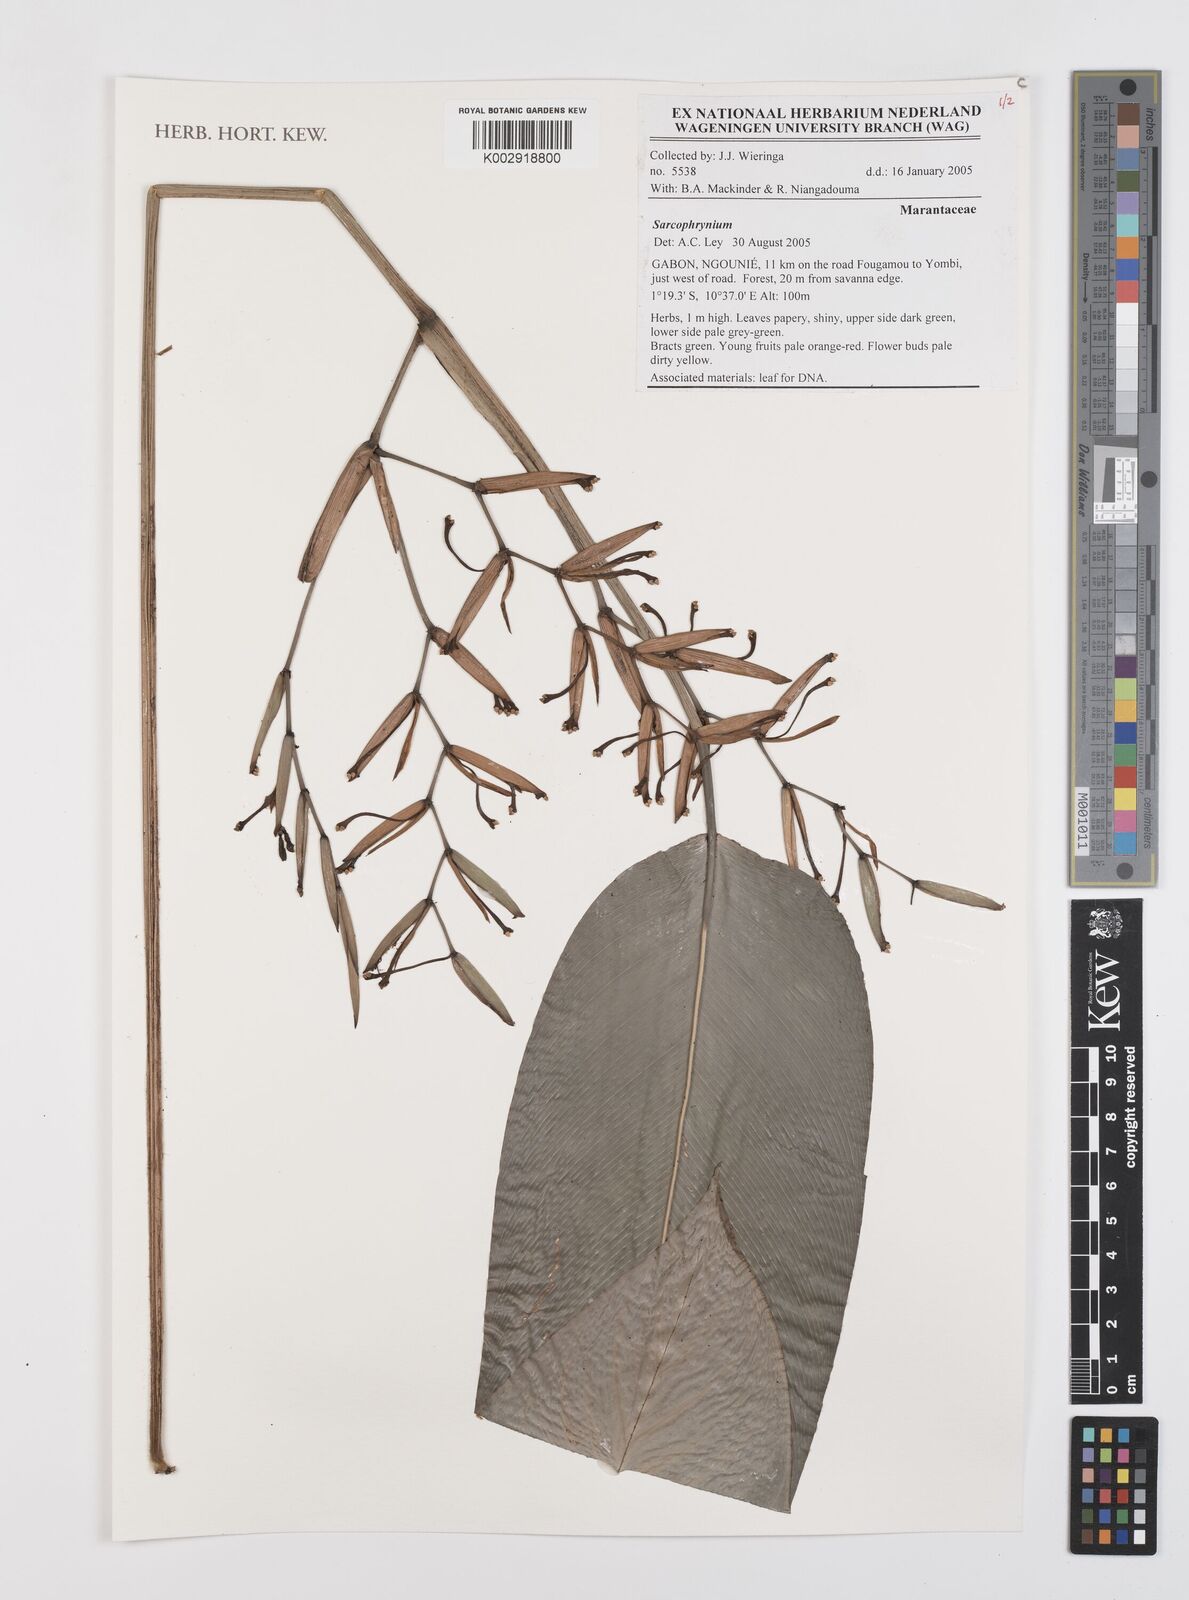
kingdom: Plantae
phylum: Tracheophyta
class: Liliopsida
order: Zingiberales
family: Marantaceae
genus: Sarcophrynium
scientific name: Sarcophrynium
